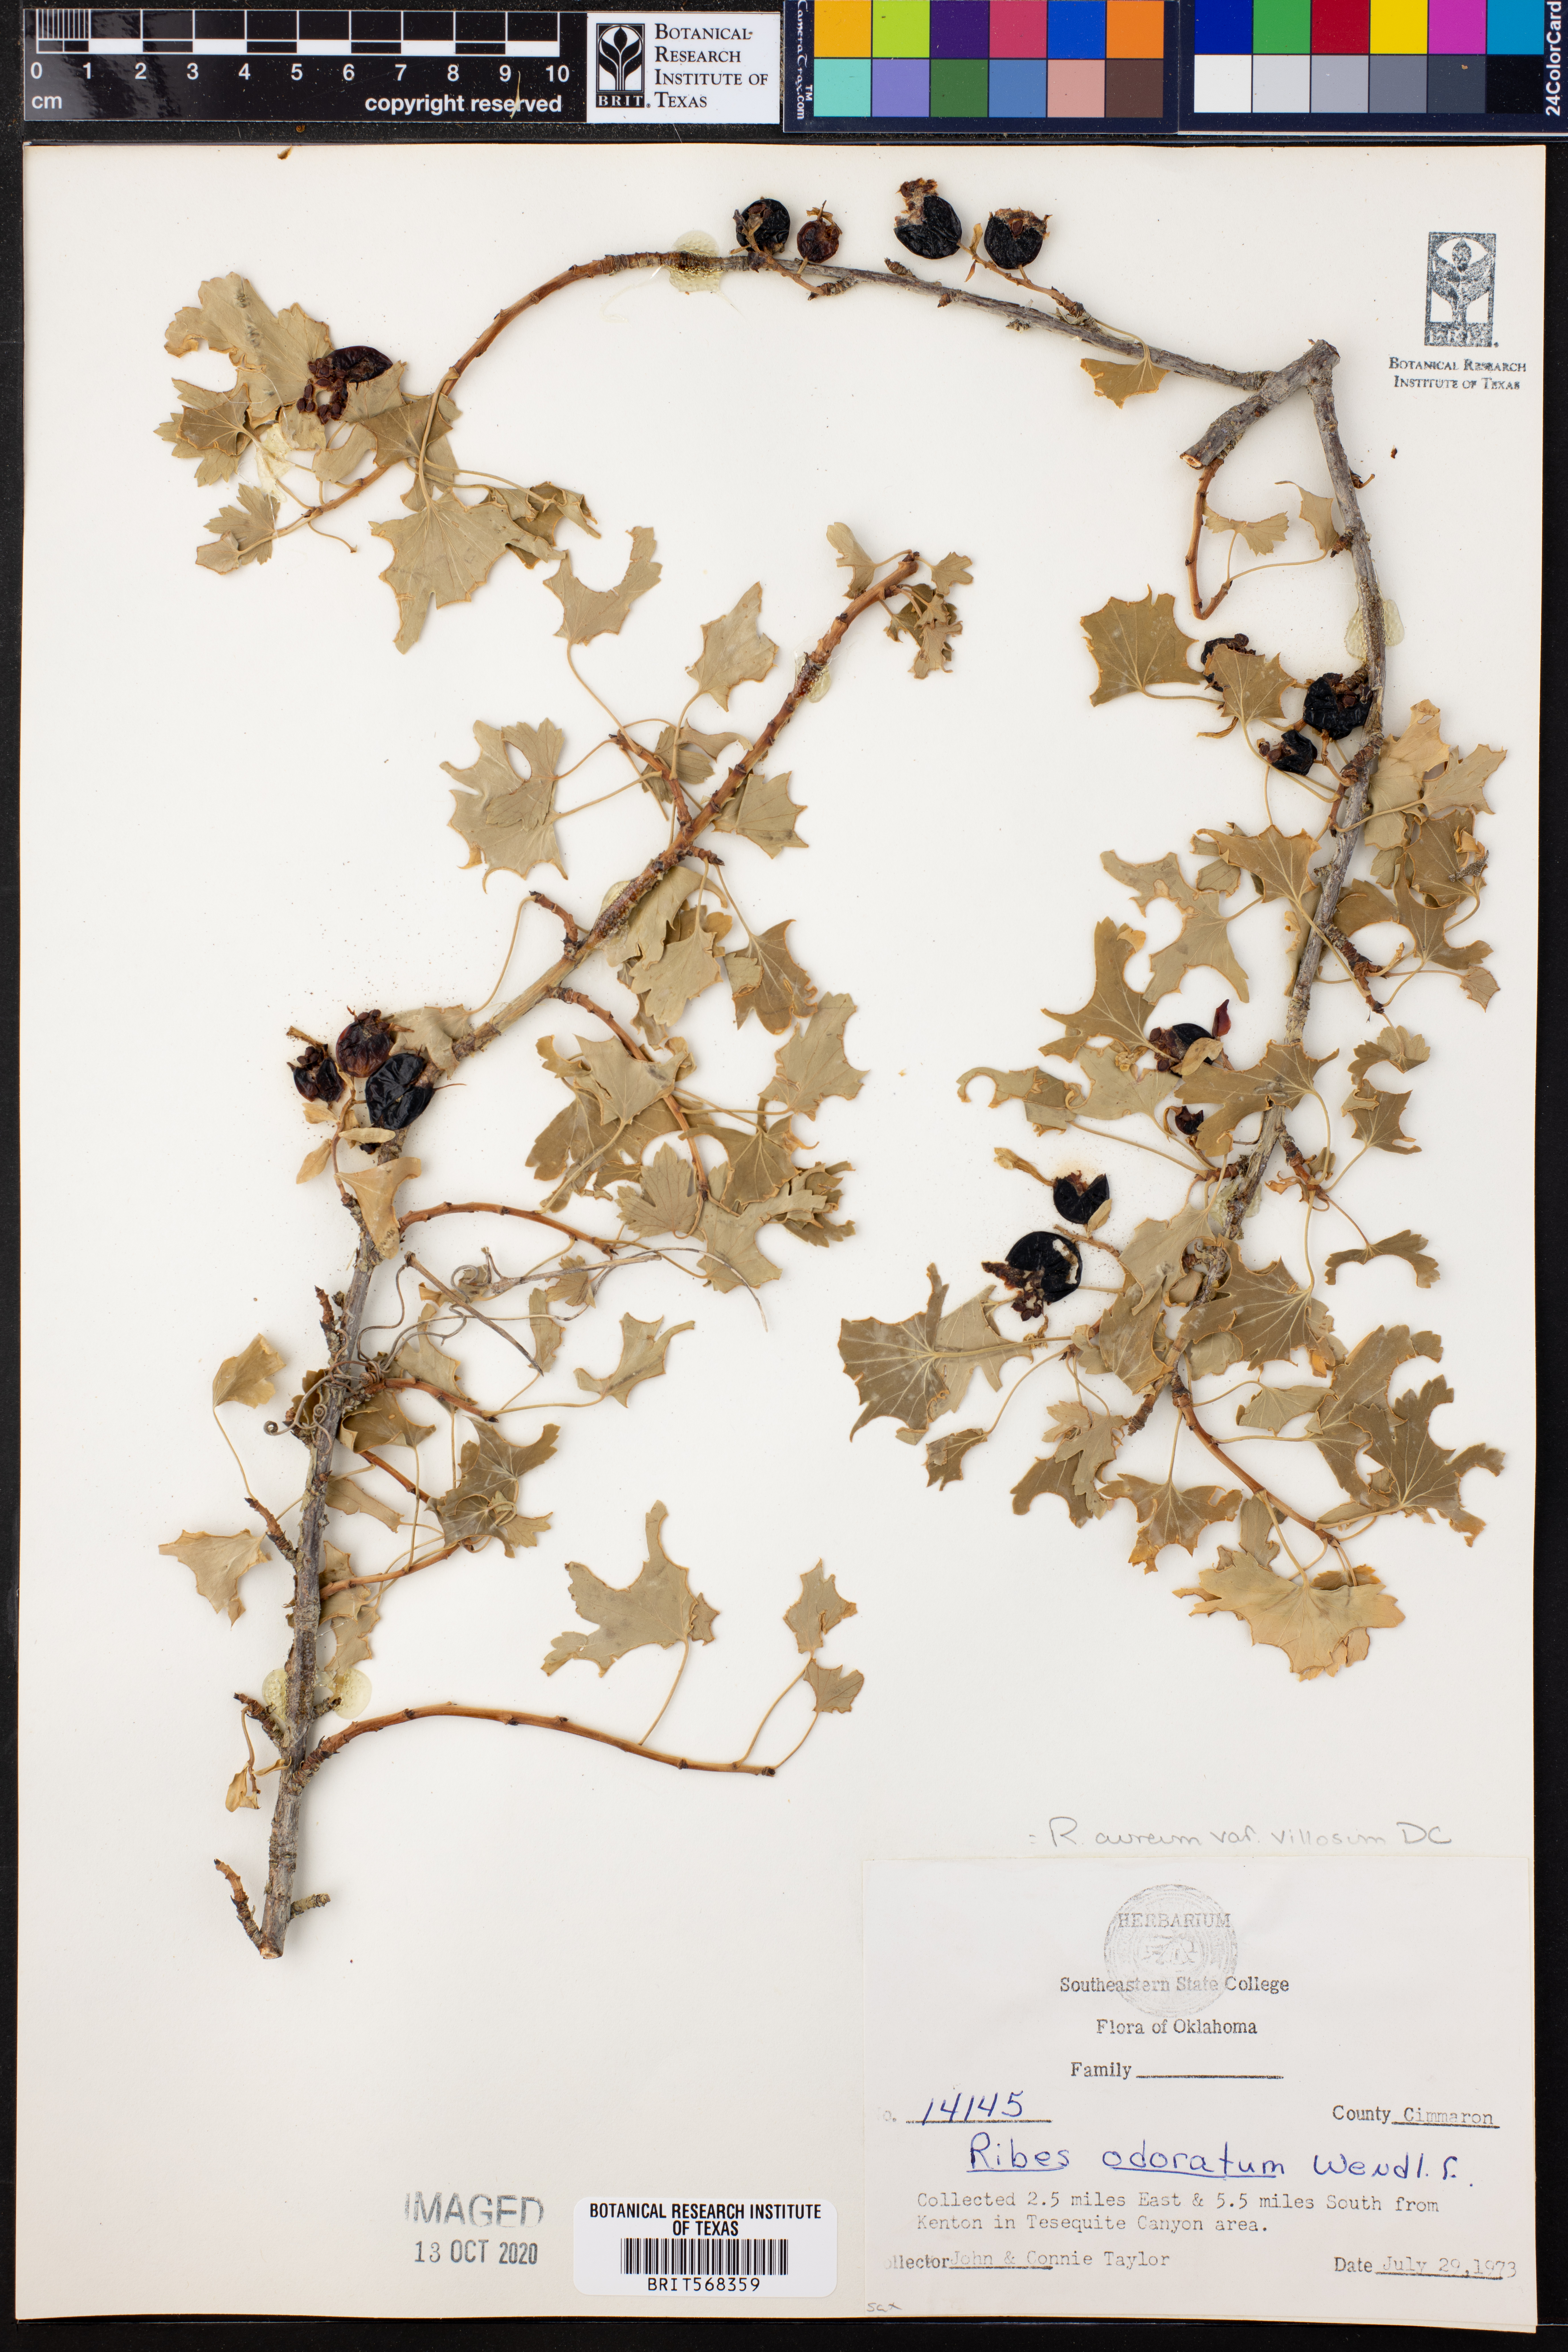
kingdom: Plantae
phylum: Tracheophyta
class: Magnoliopsida
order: Saxifragales
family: Grossulariaceae
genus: Ribes
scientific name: Ribes aureum
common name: Golden currant
